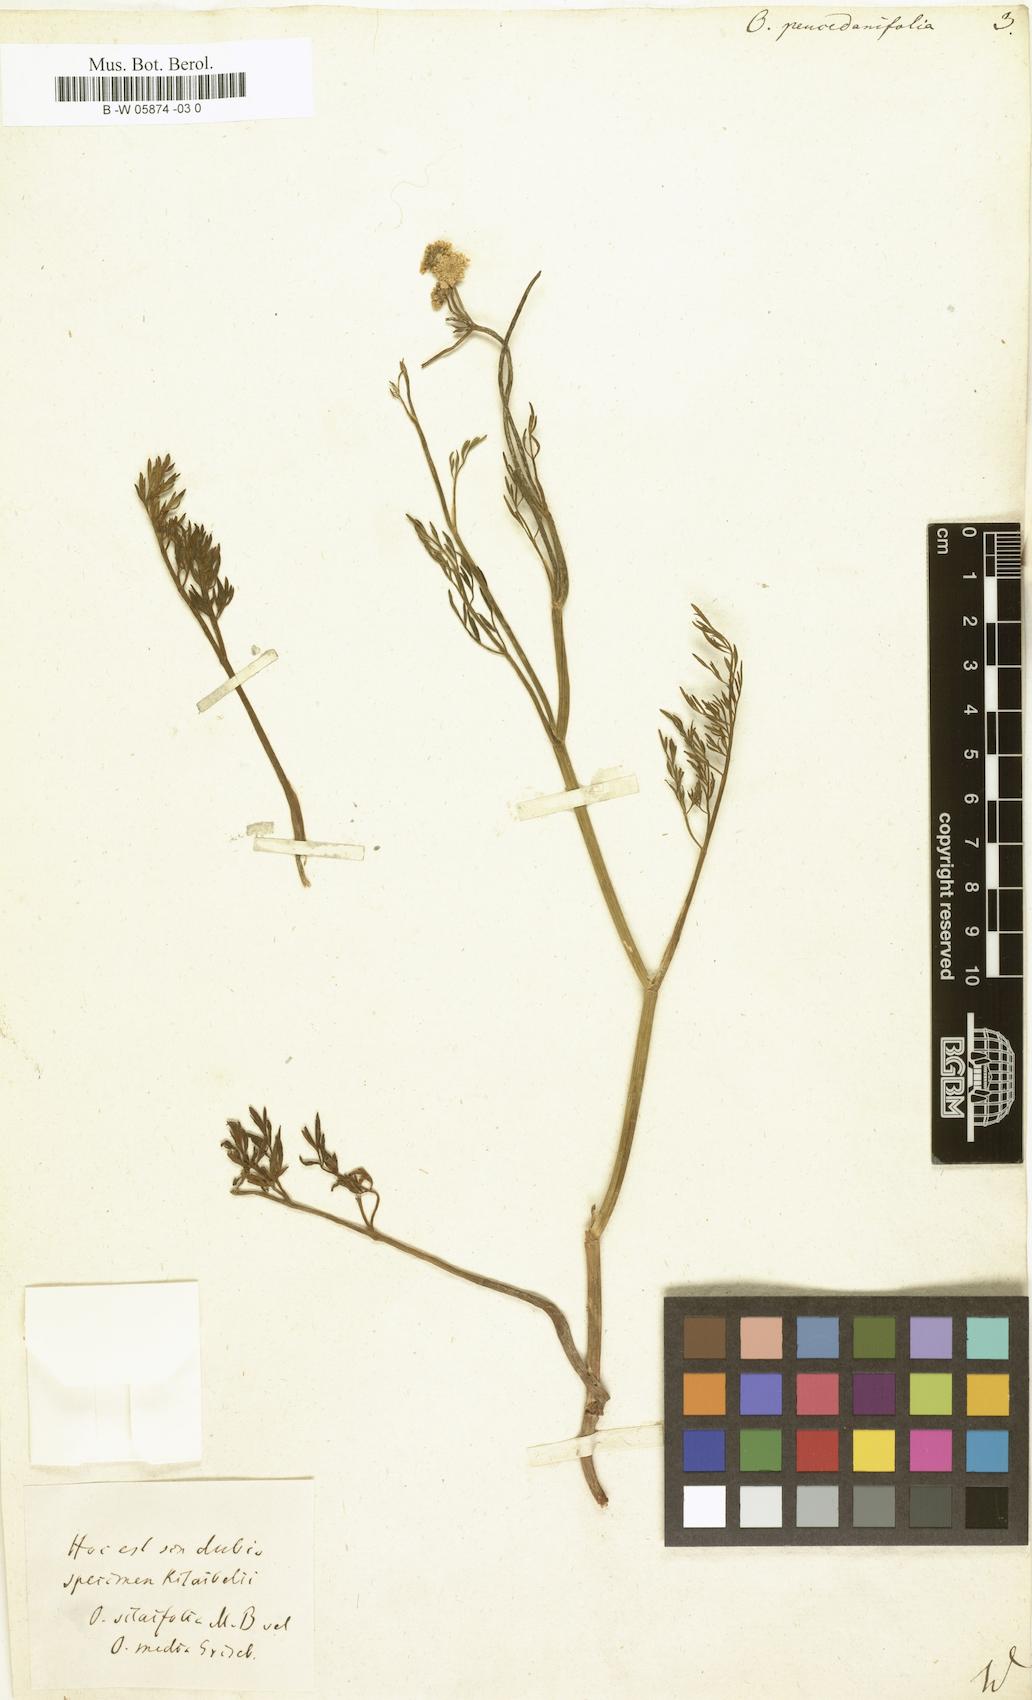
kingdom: Plantae
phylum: Tracheophyta
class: Magnoliopsida
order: Apiales
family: Apiaceae
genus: Oenanthe
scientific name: Oenanthe peucedanifolia
